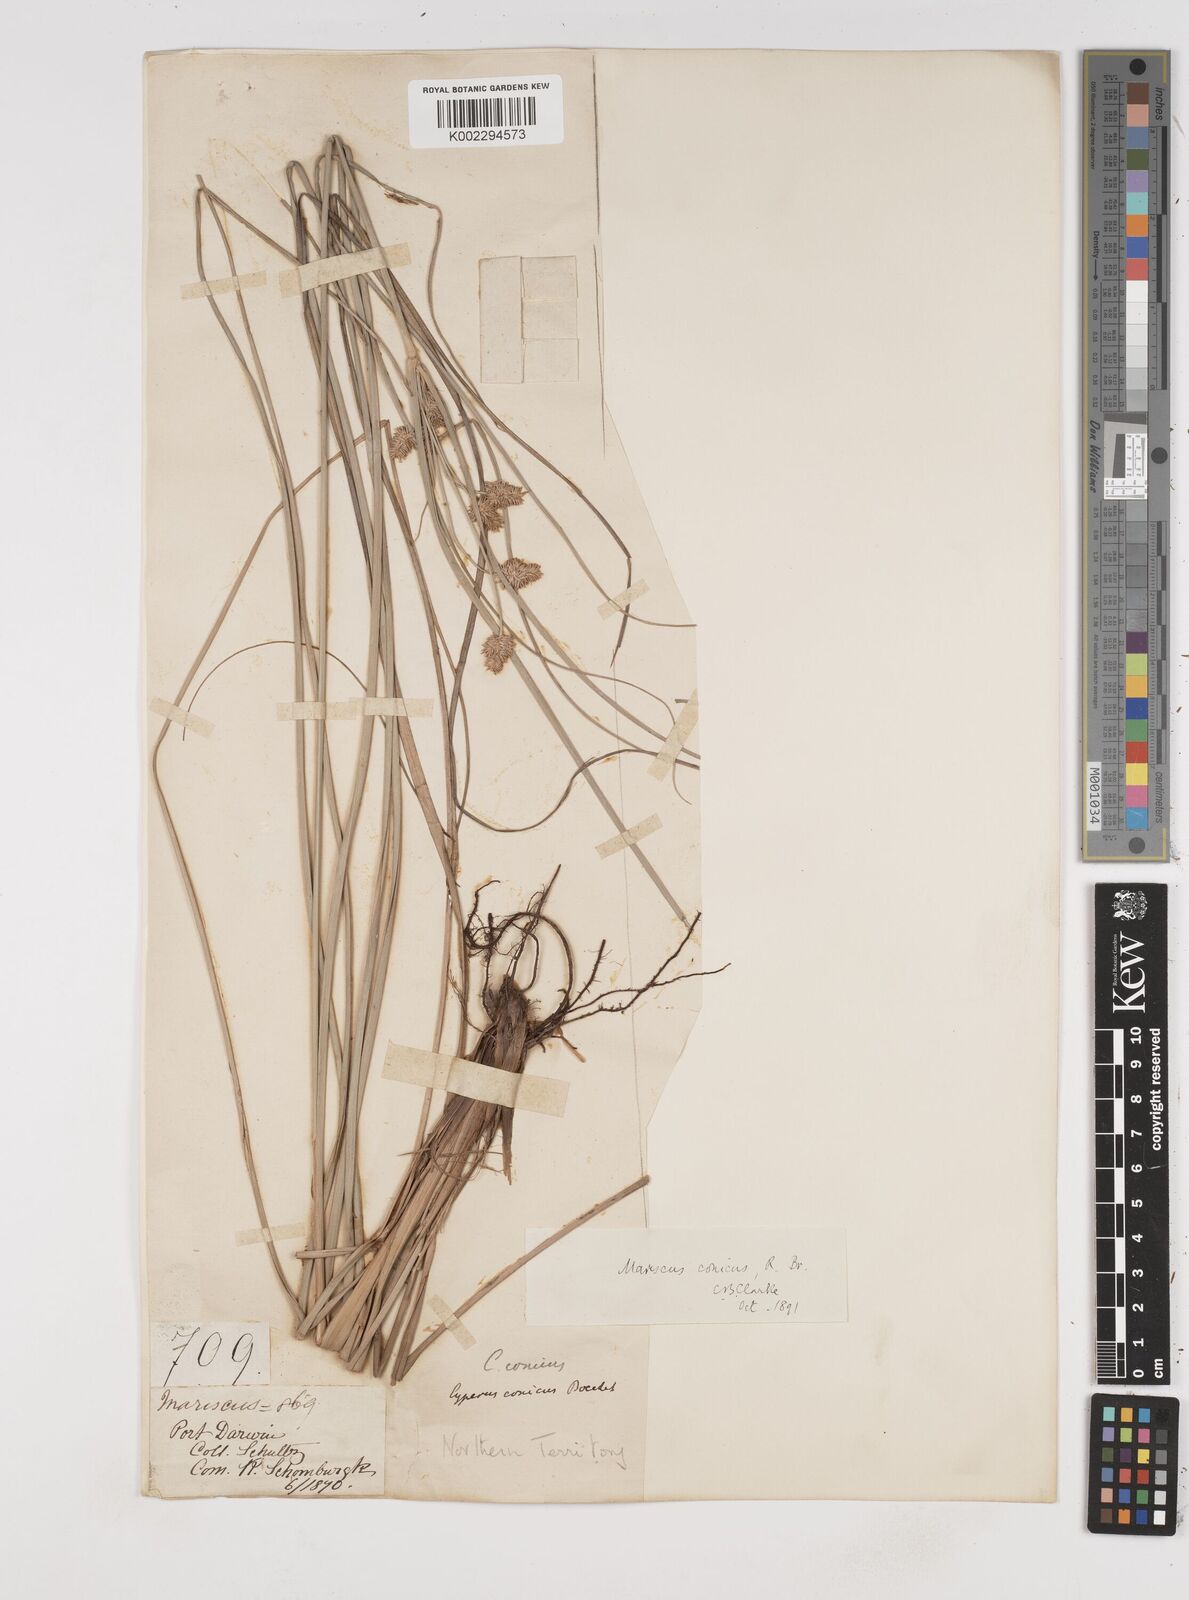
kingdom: Plantae
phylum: Tracheophyta
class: Liliopsida
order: Poales
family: Cyperaceae
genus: Cyperus
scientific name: Cyperus conicus
